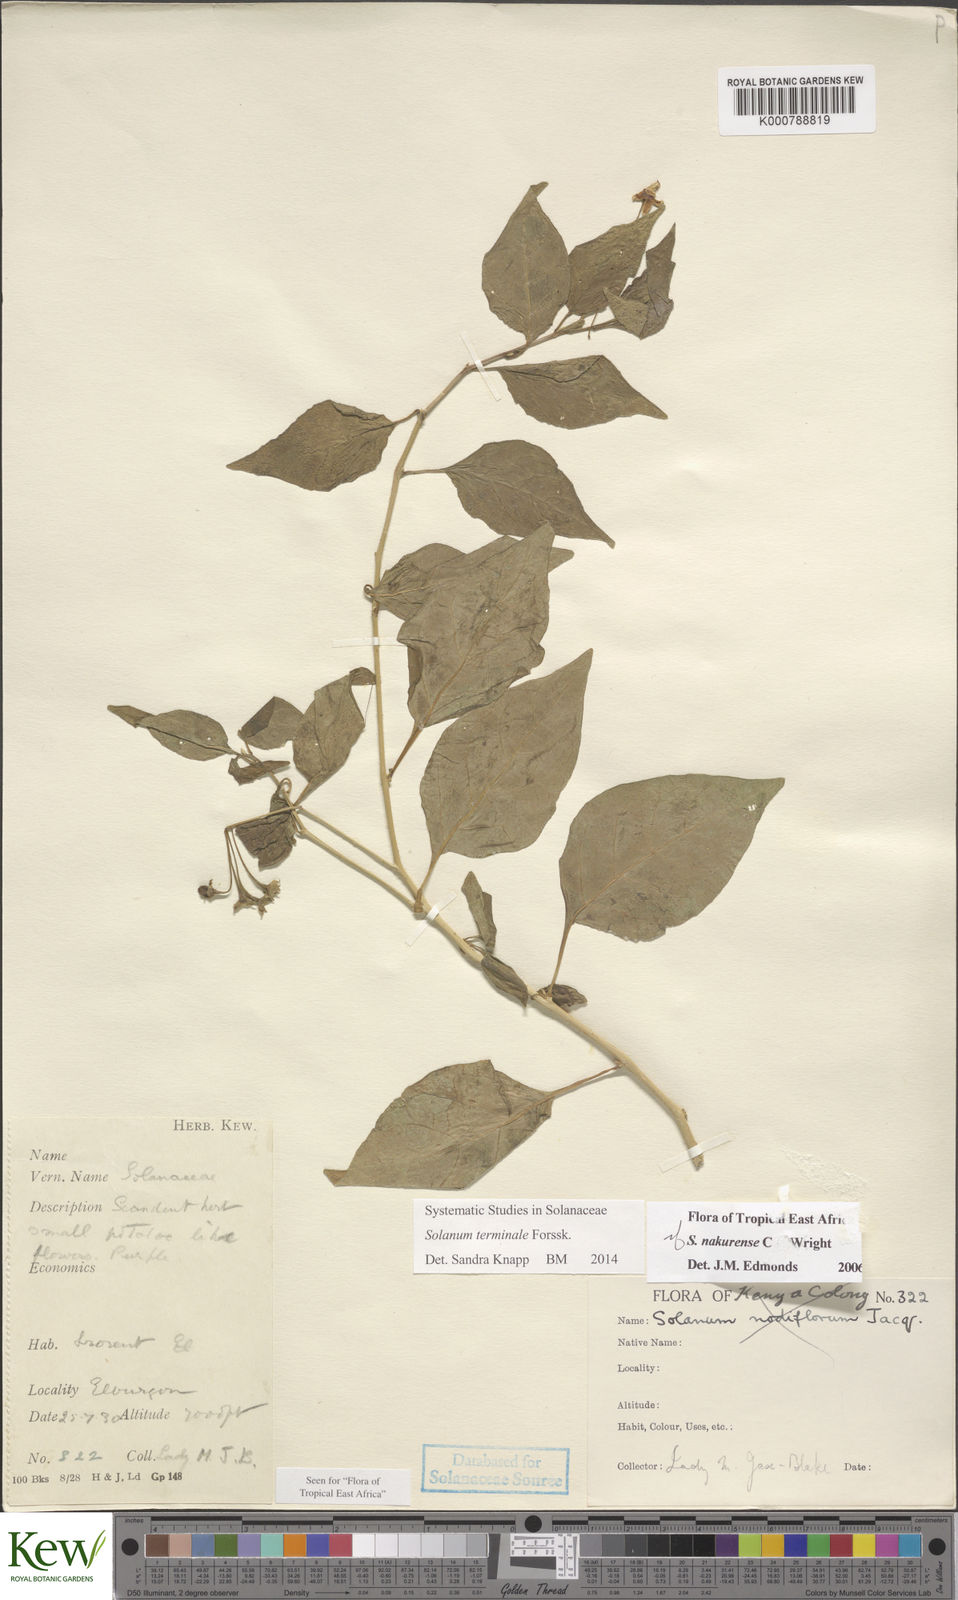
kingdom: Plantae
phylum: Tracheophyta
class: Magnoliopsida
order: Solanales
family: Solanaceae
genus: Solanum
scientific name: Solanum terminale
